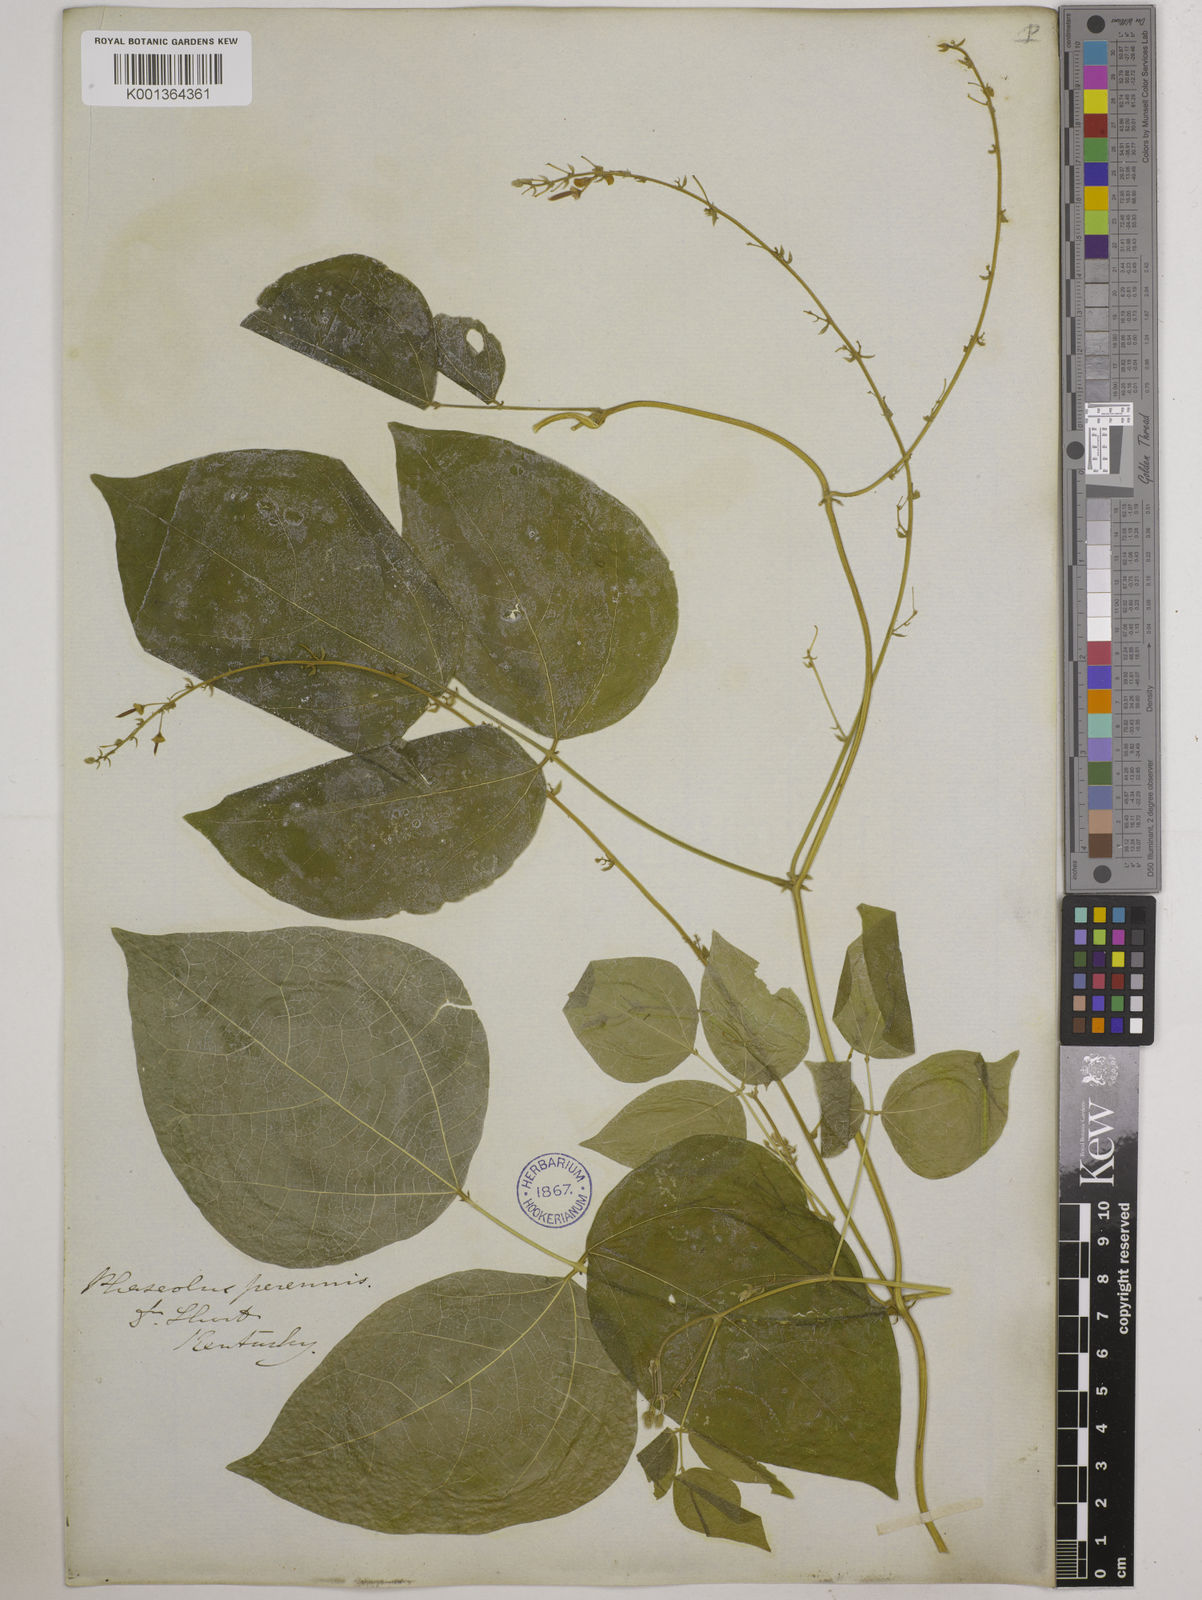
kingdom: Plantae
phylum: Tracheophyta
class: Magnoliopsida
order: Fabales
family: Fabaceae
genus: Phaseolus
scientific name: Phaseolus
